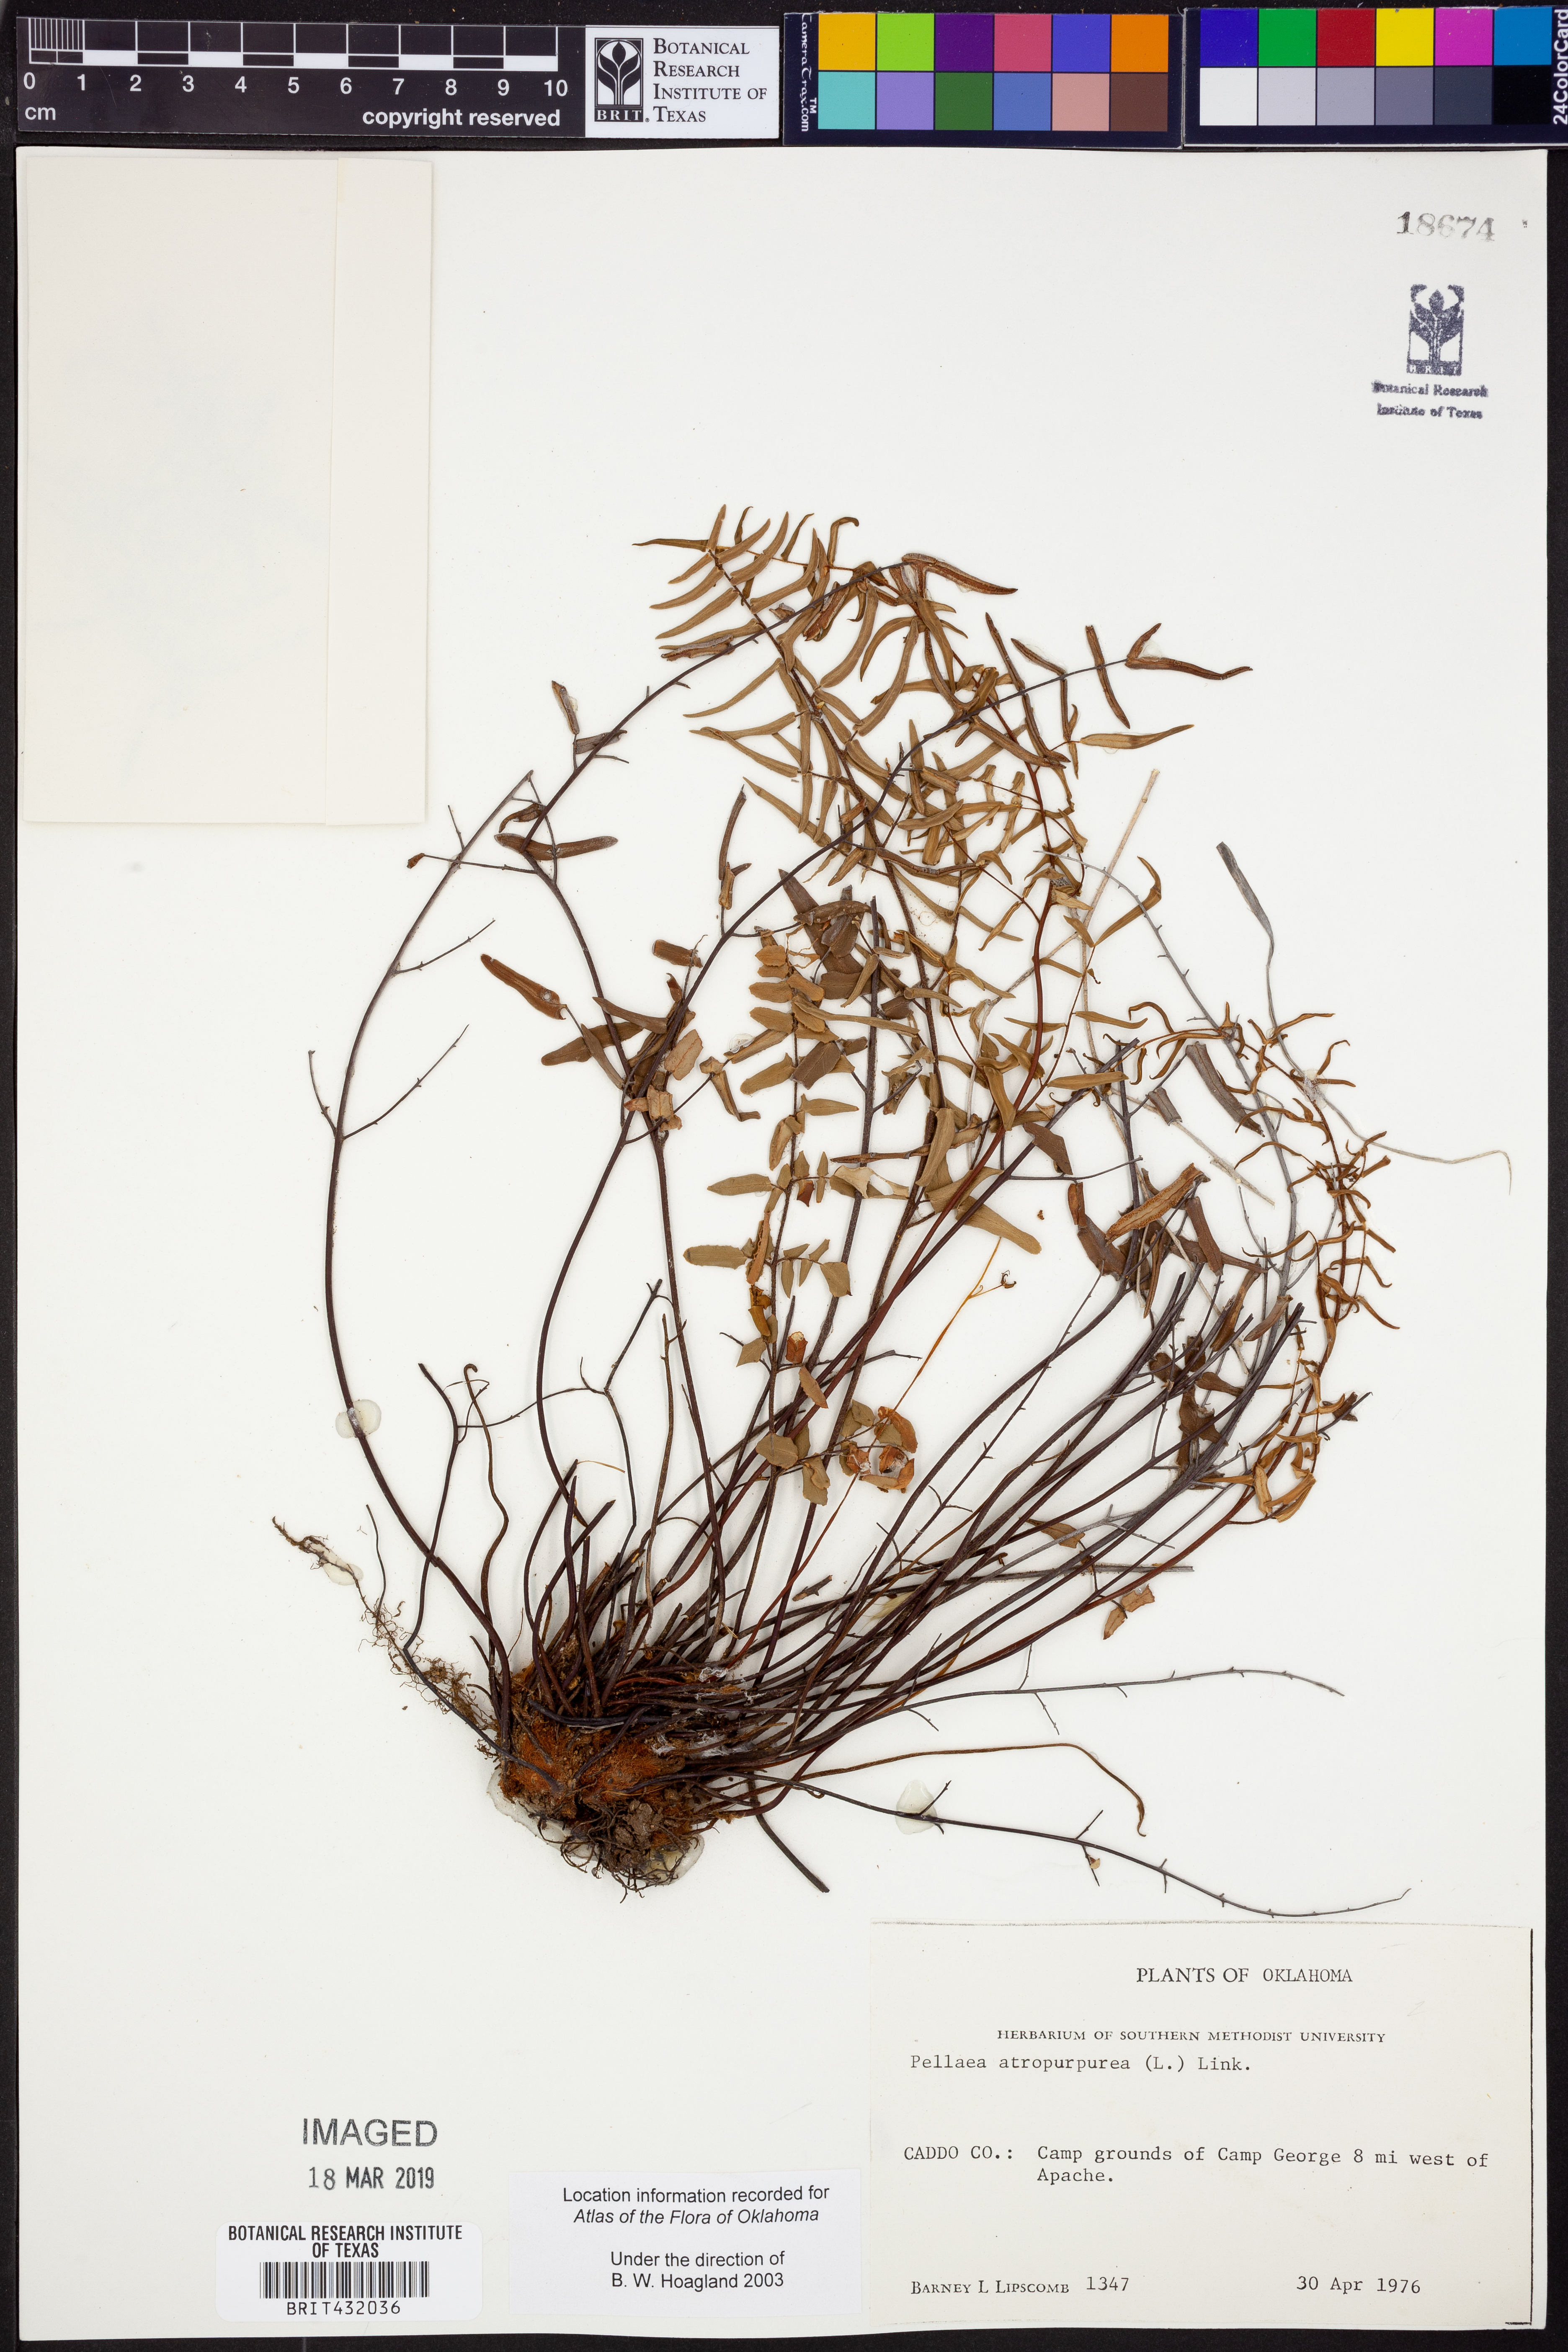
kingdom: Plantae
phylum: Tracheophyta
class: Polypodiopsida
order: Polypodiales
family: Pteridaceae
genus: Pellaea
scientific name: Pellaea atropurpurea
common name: Hairy cliffbrake
